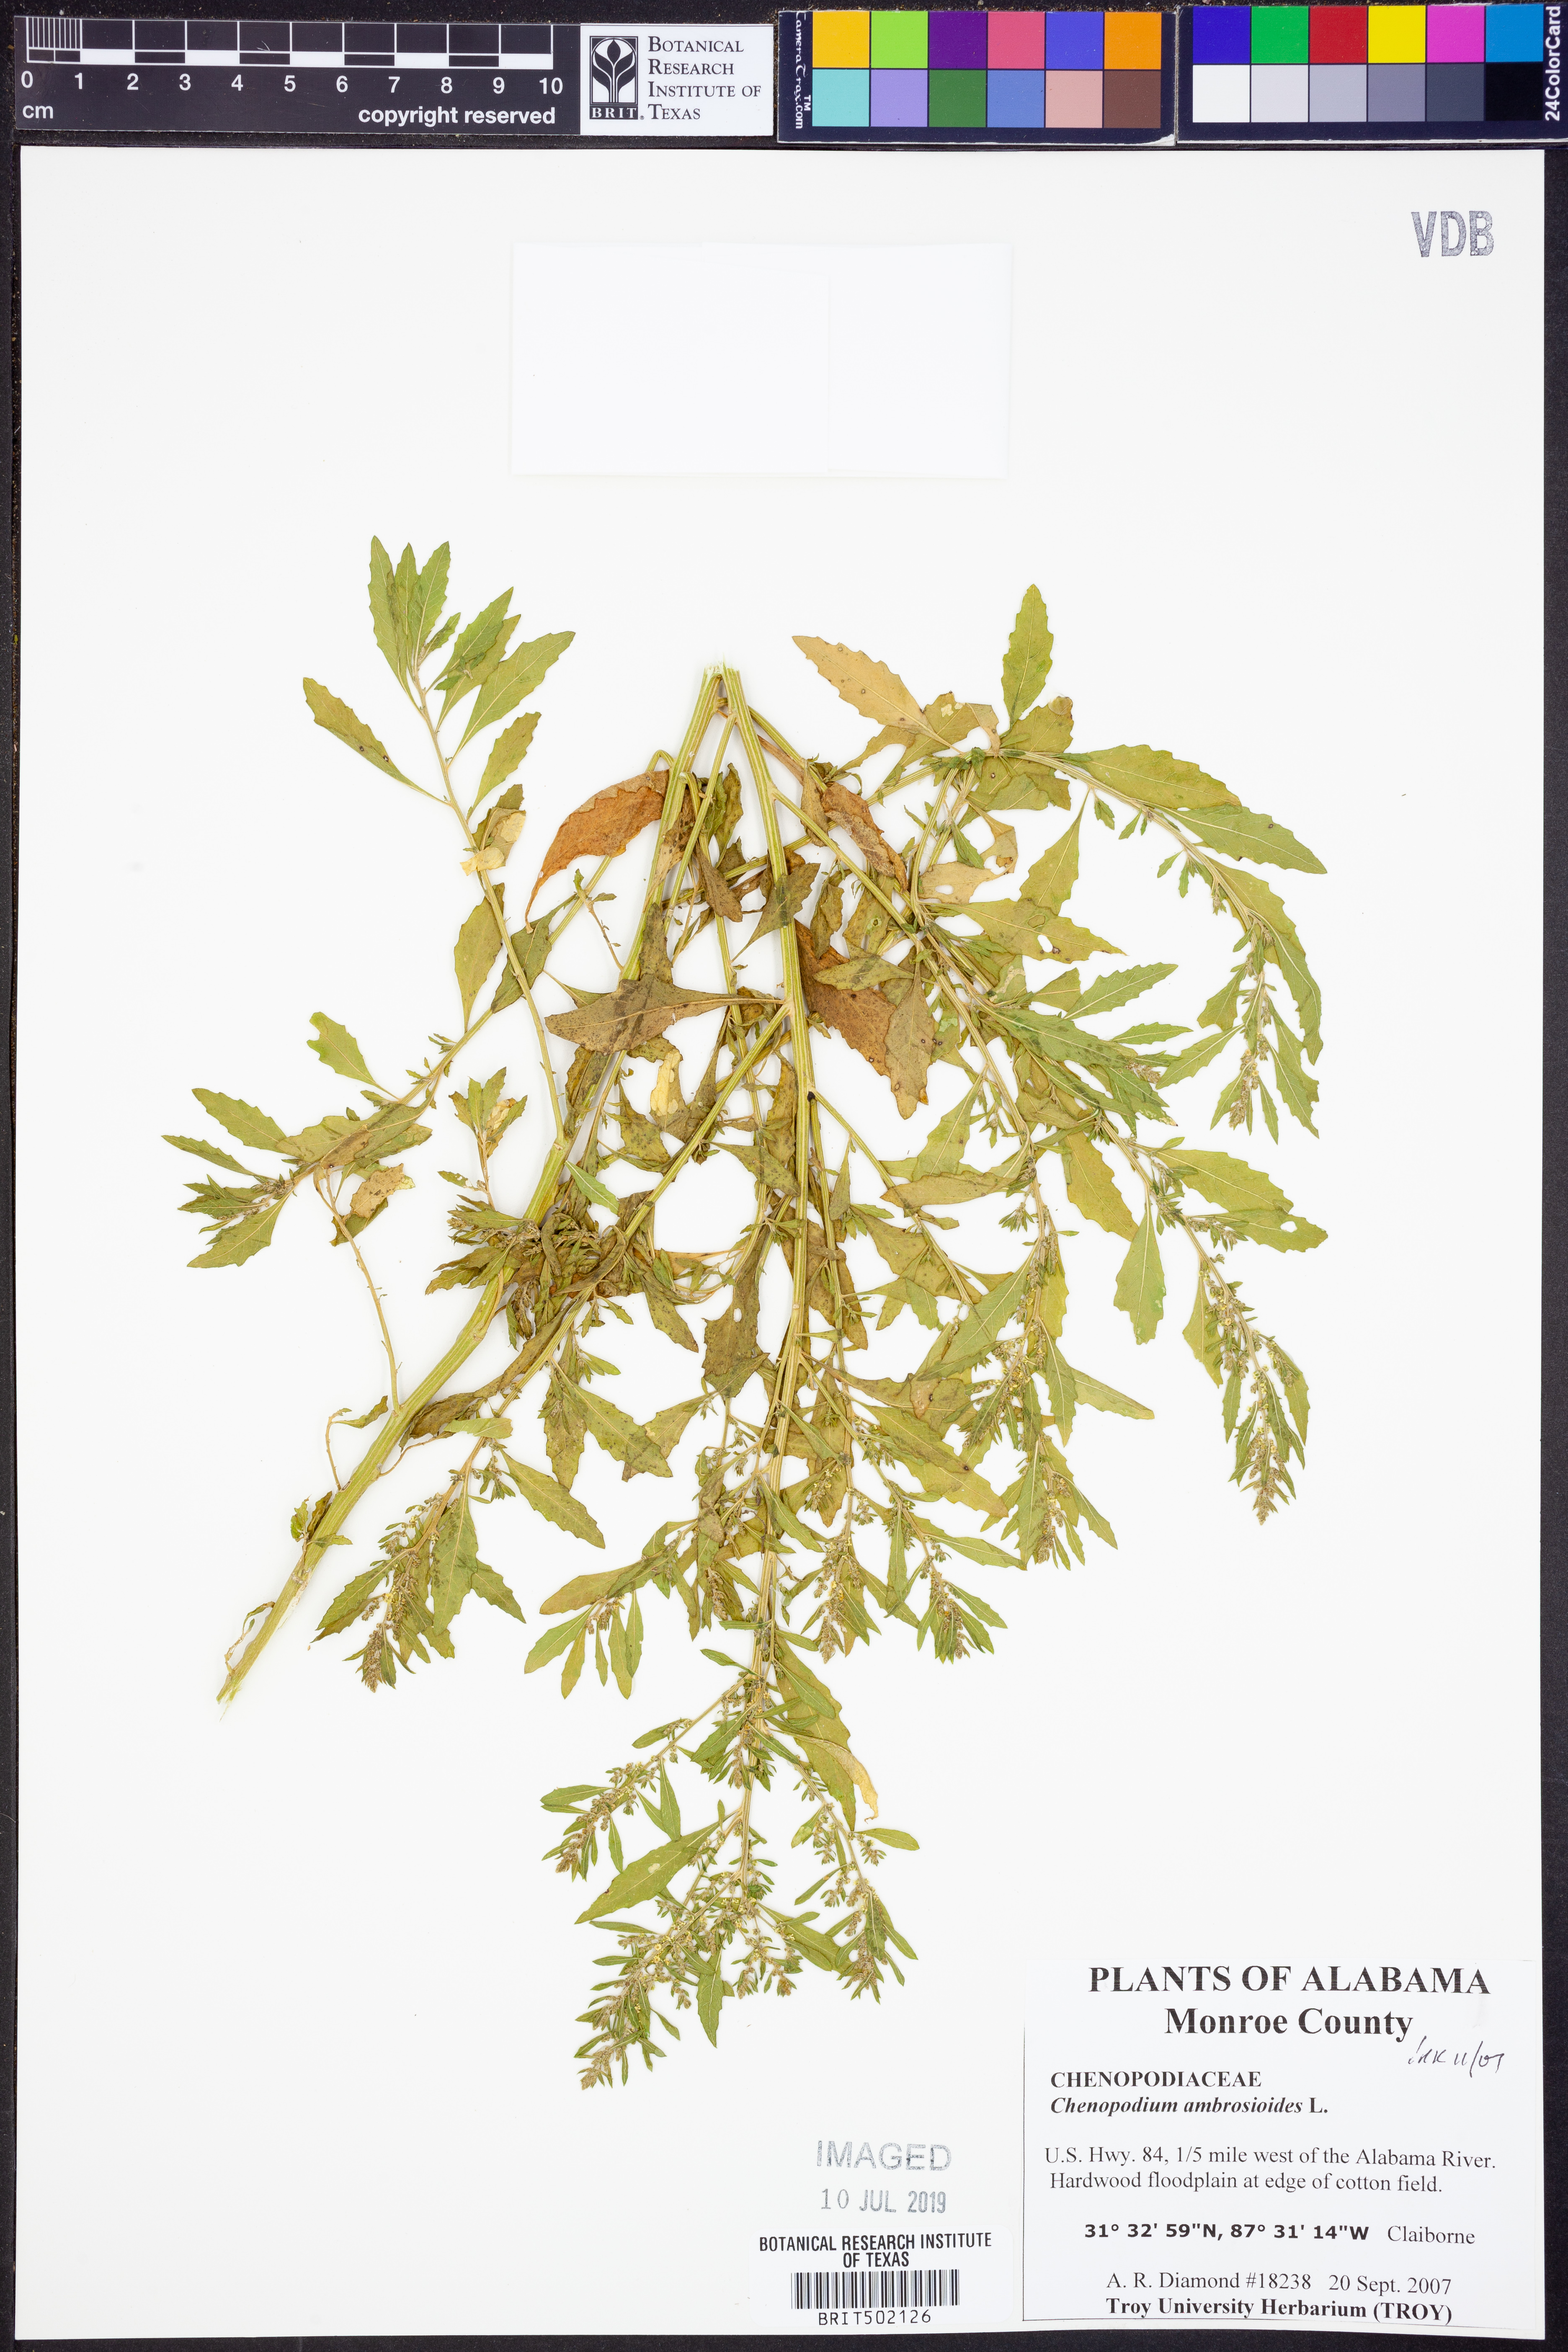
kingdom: Plantae
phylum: Tracheophyta
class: Magnoliopsida
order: Caryophyllales
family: Amaranthaceae
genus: Dysphania
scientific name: Dysphania ambrosioides
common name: Wormseed
